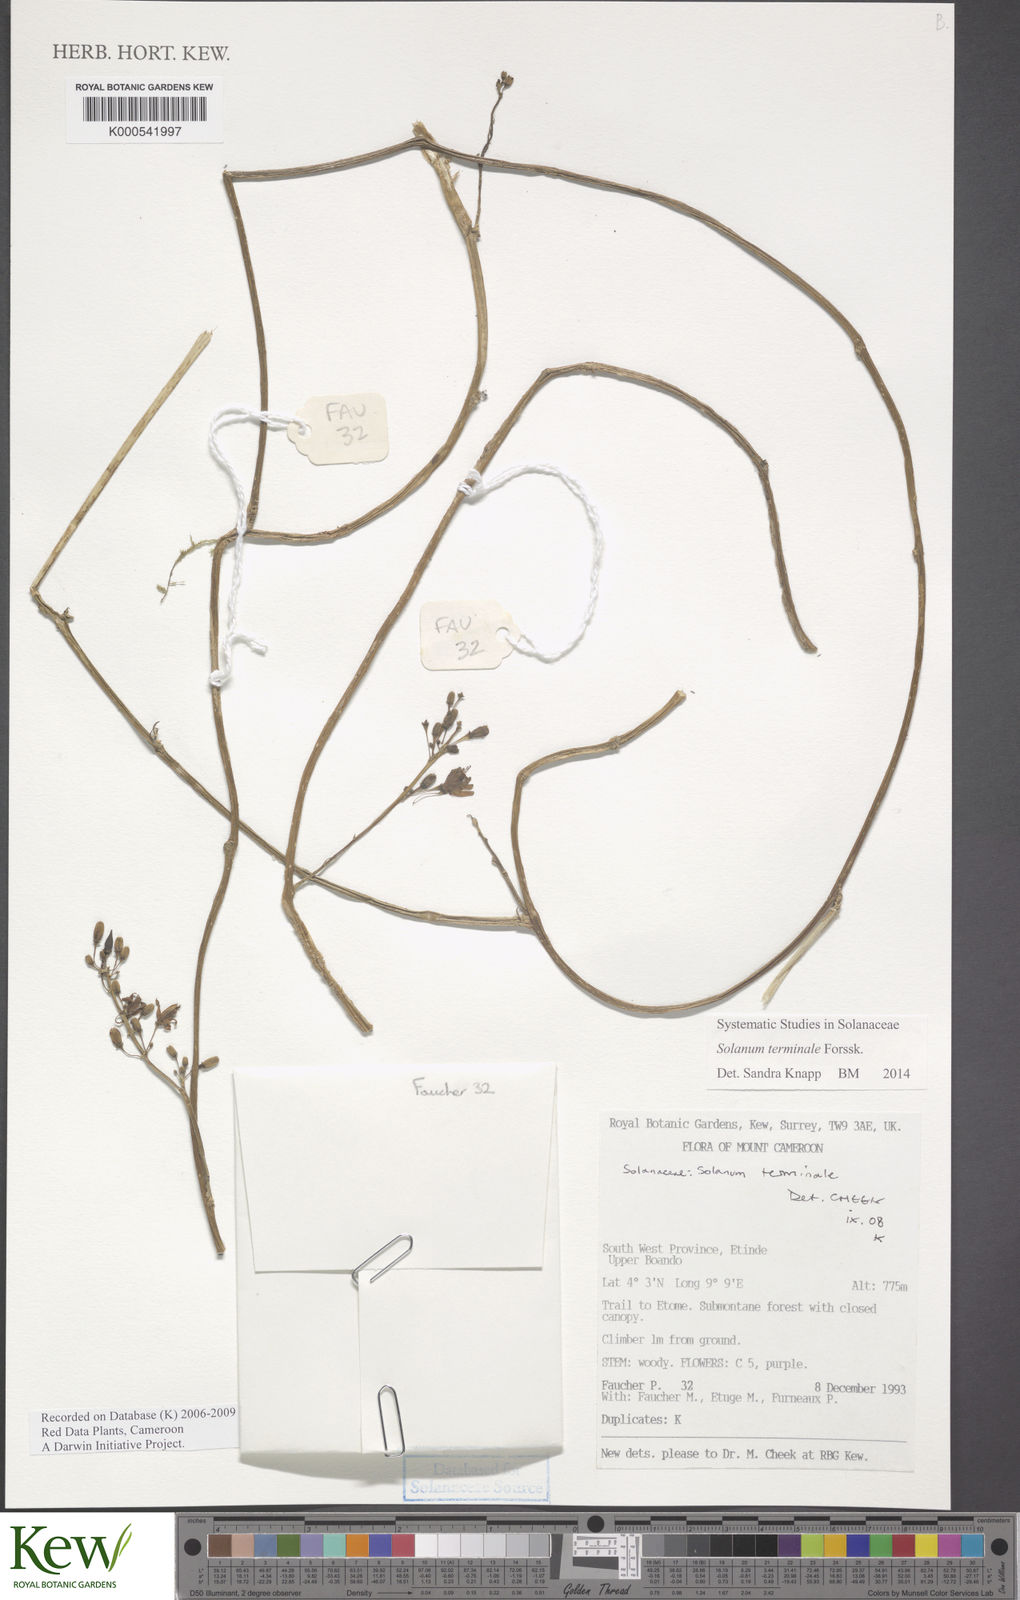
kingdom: Plantae
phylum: Tracheophyta
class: Magnoliopsida
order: Solanales
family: Solanaceae
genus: Solanum
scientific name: Solanum terminale
